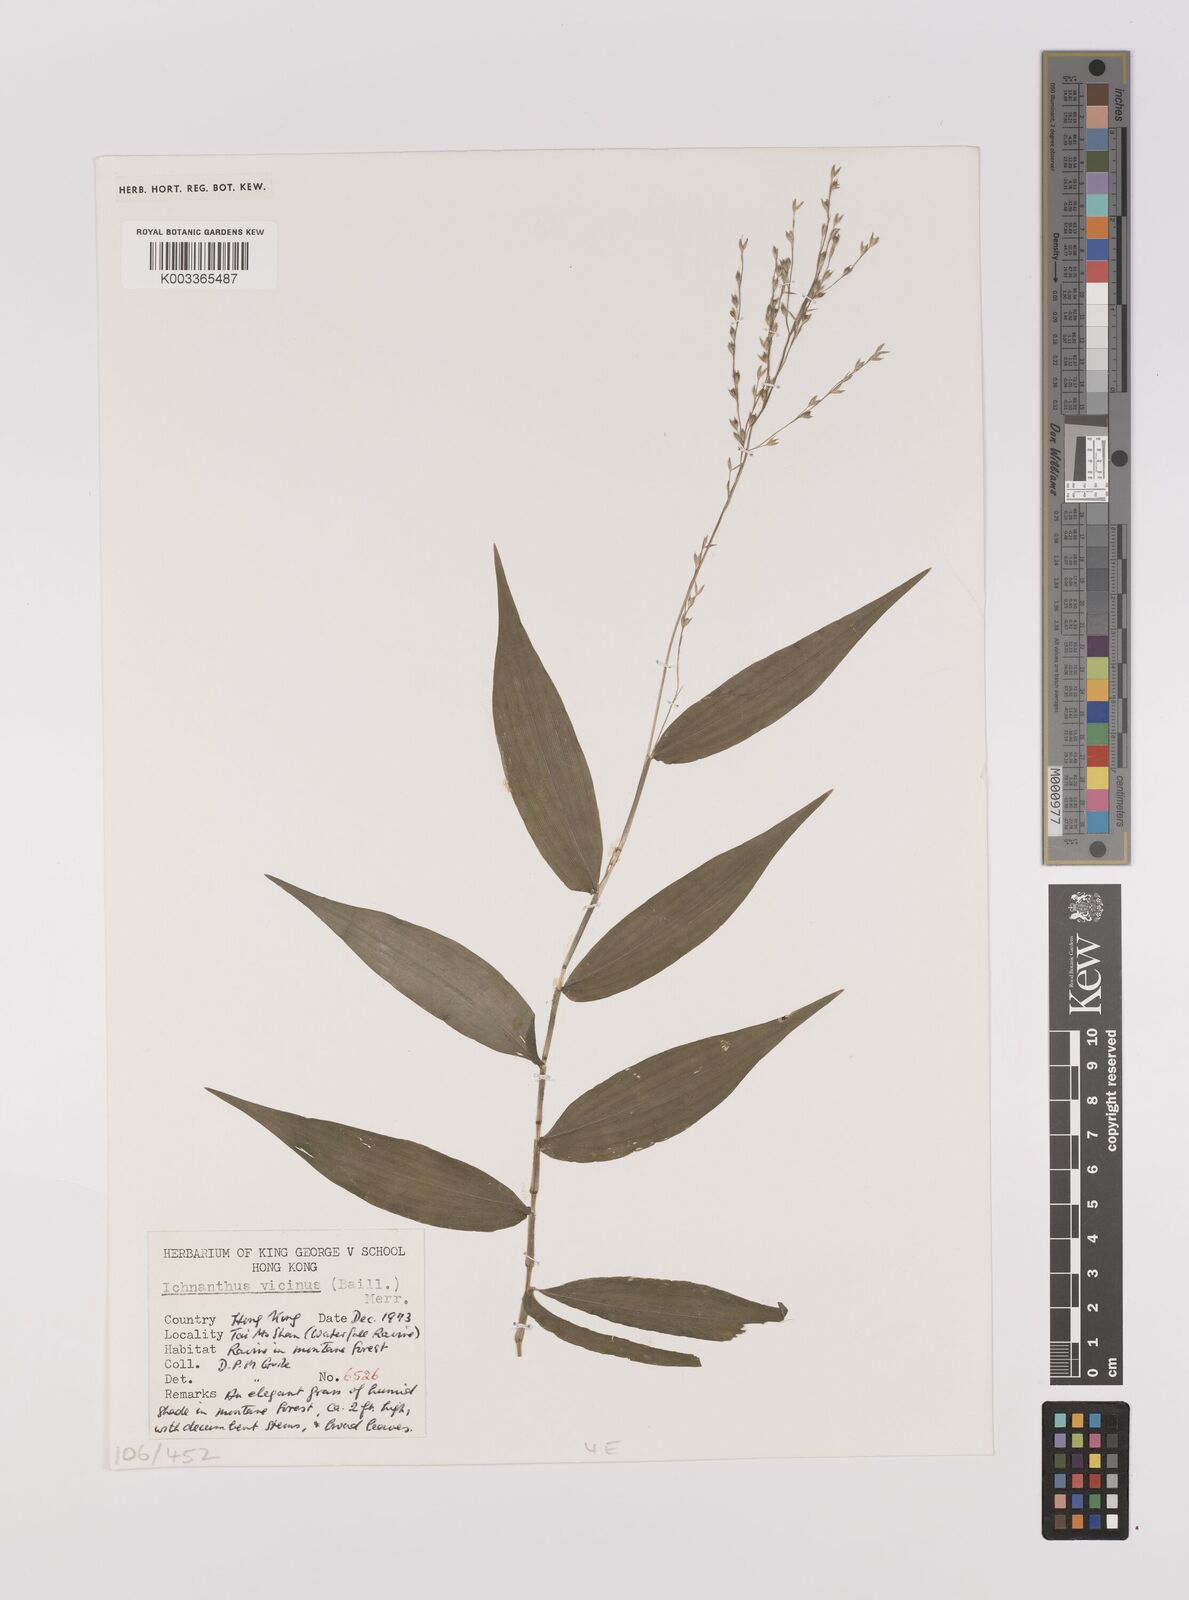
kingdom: Plantae
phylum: Tracheophyta
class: Liliopsida
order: Poales
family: Poaceae
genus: Ichnanthus
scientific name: Ichnanthus pallens
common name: Water grass
